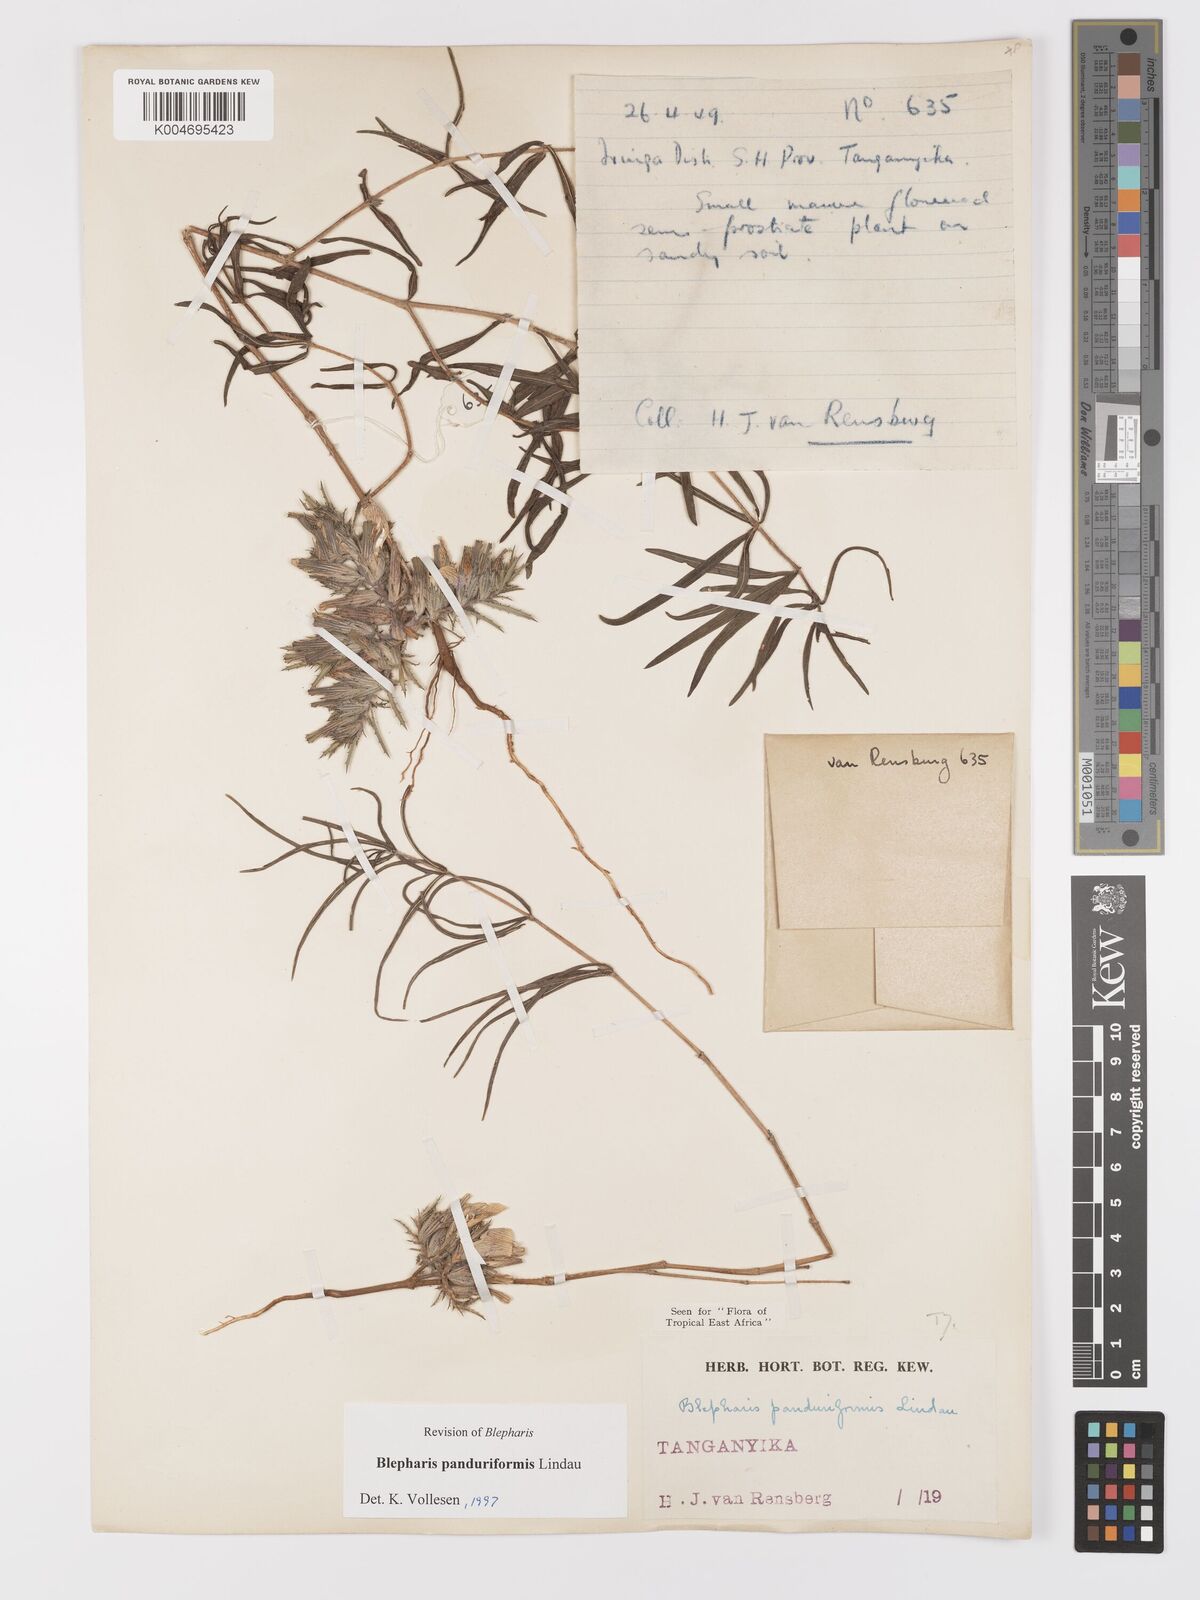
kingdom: Plantae
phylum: Tracheophyta
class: Magnoliopsida
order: Lamiales
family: Acanthaceae
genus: Blepharis
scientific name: Blepharis panduriformis
